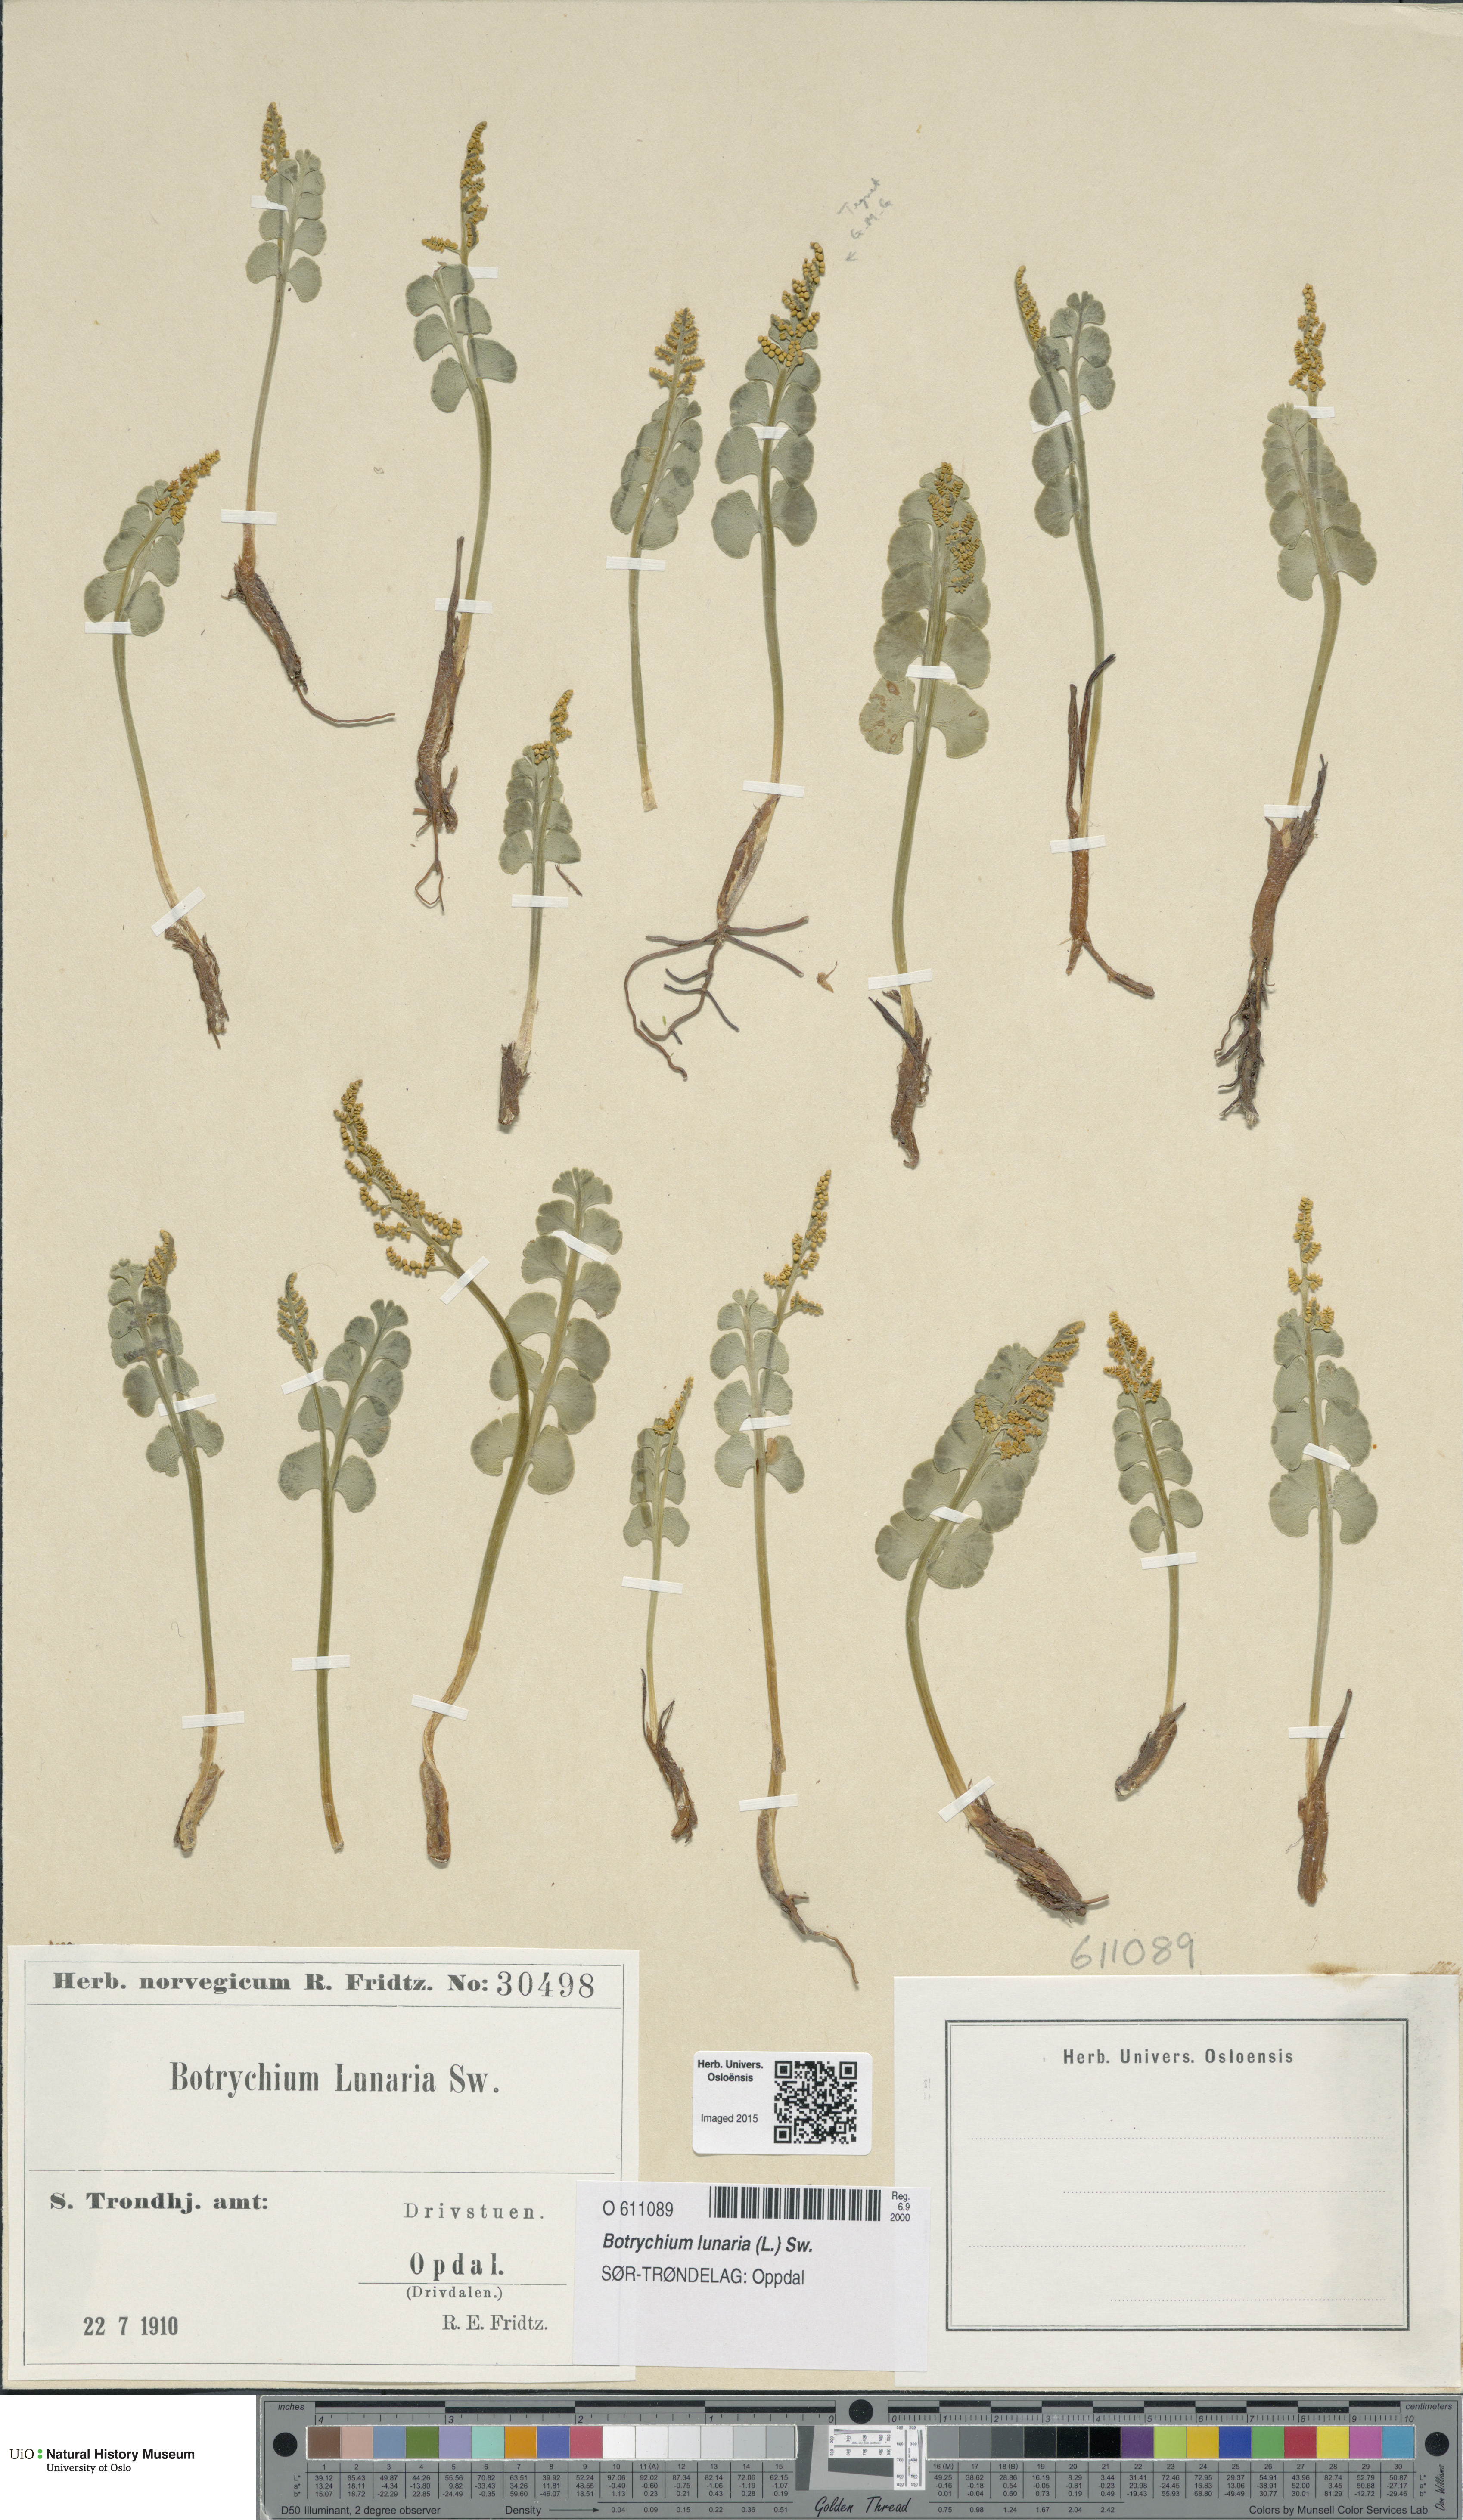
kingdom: Plantae
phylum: Tracheophyta
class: Polypodiopsida
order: Ophioglossales
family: Ophioglossaceae
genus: Botrychium
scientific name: Botrychium lunaria
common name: Moonwort
